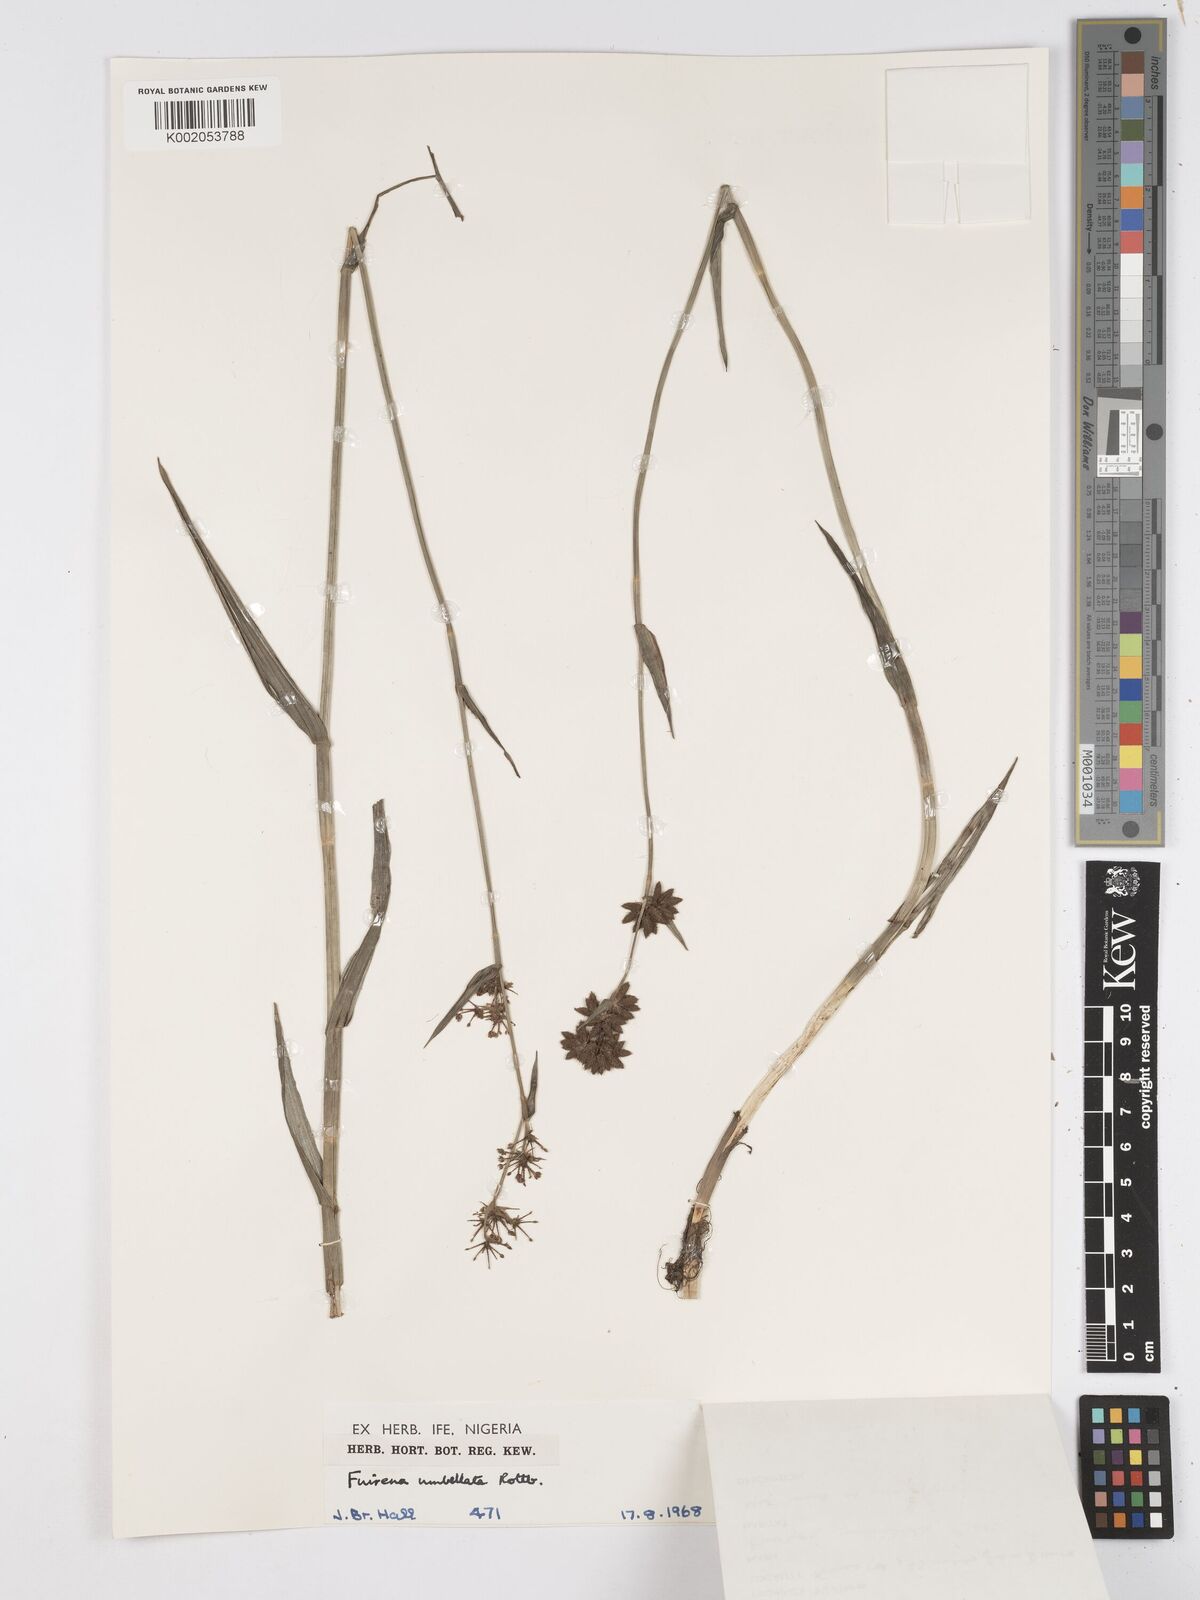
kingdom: Plantae
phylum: Tracheophyta
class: Liliopsida
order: Poales
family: Cyperaceae
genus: Fuirena
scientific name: Fuirena umbellata
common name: Yefen
